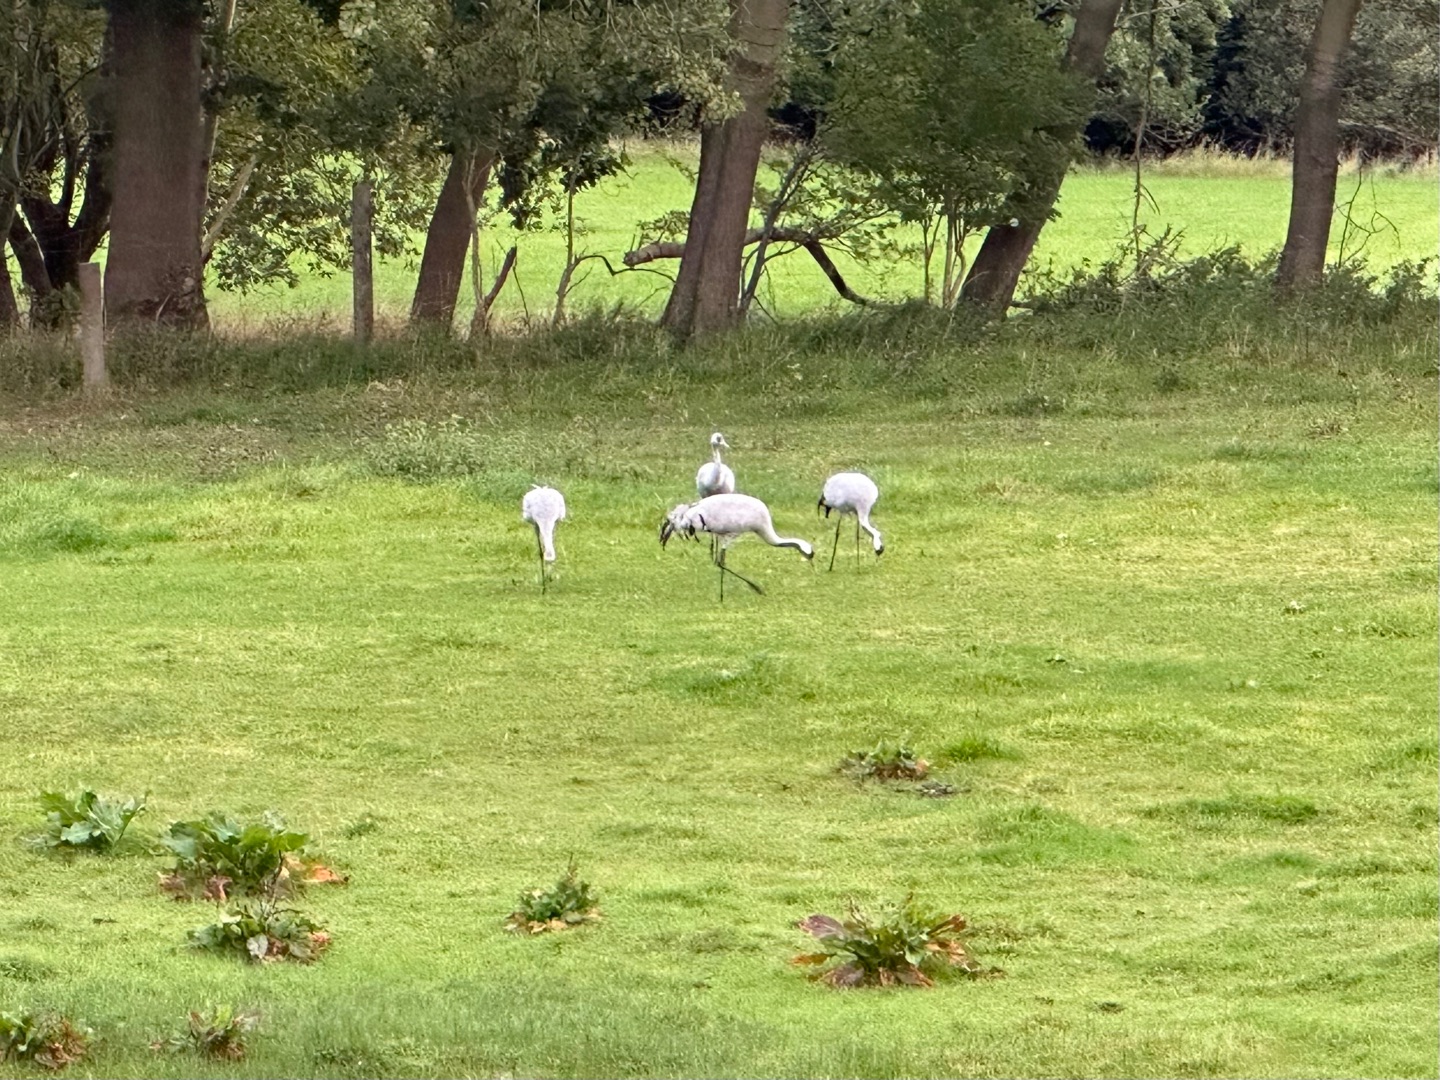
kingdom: Animalia
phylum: Chordata
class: Aves
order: Gruiformes
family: Gruidae
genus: Grus
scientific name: Grus grus
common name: Trane
